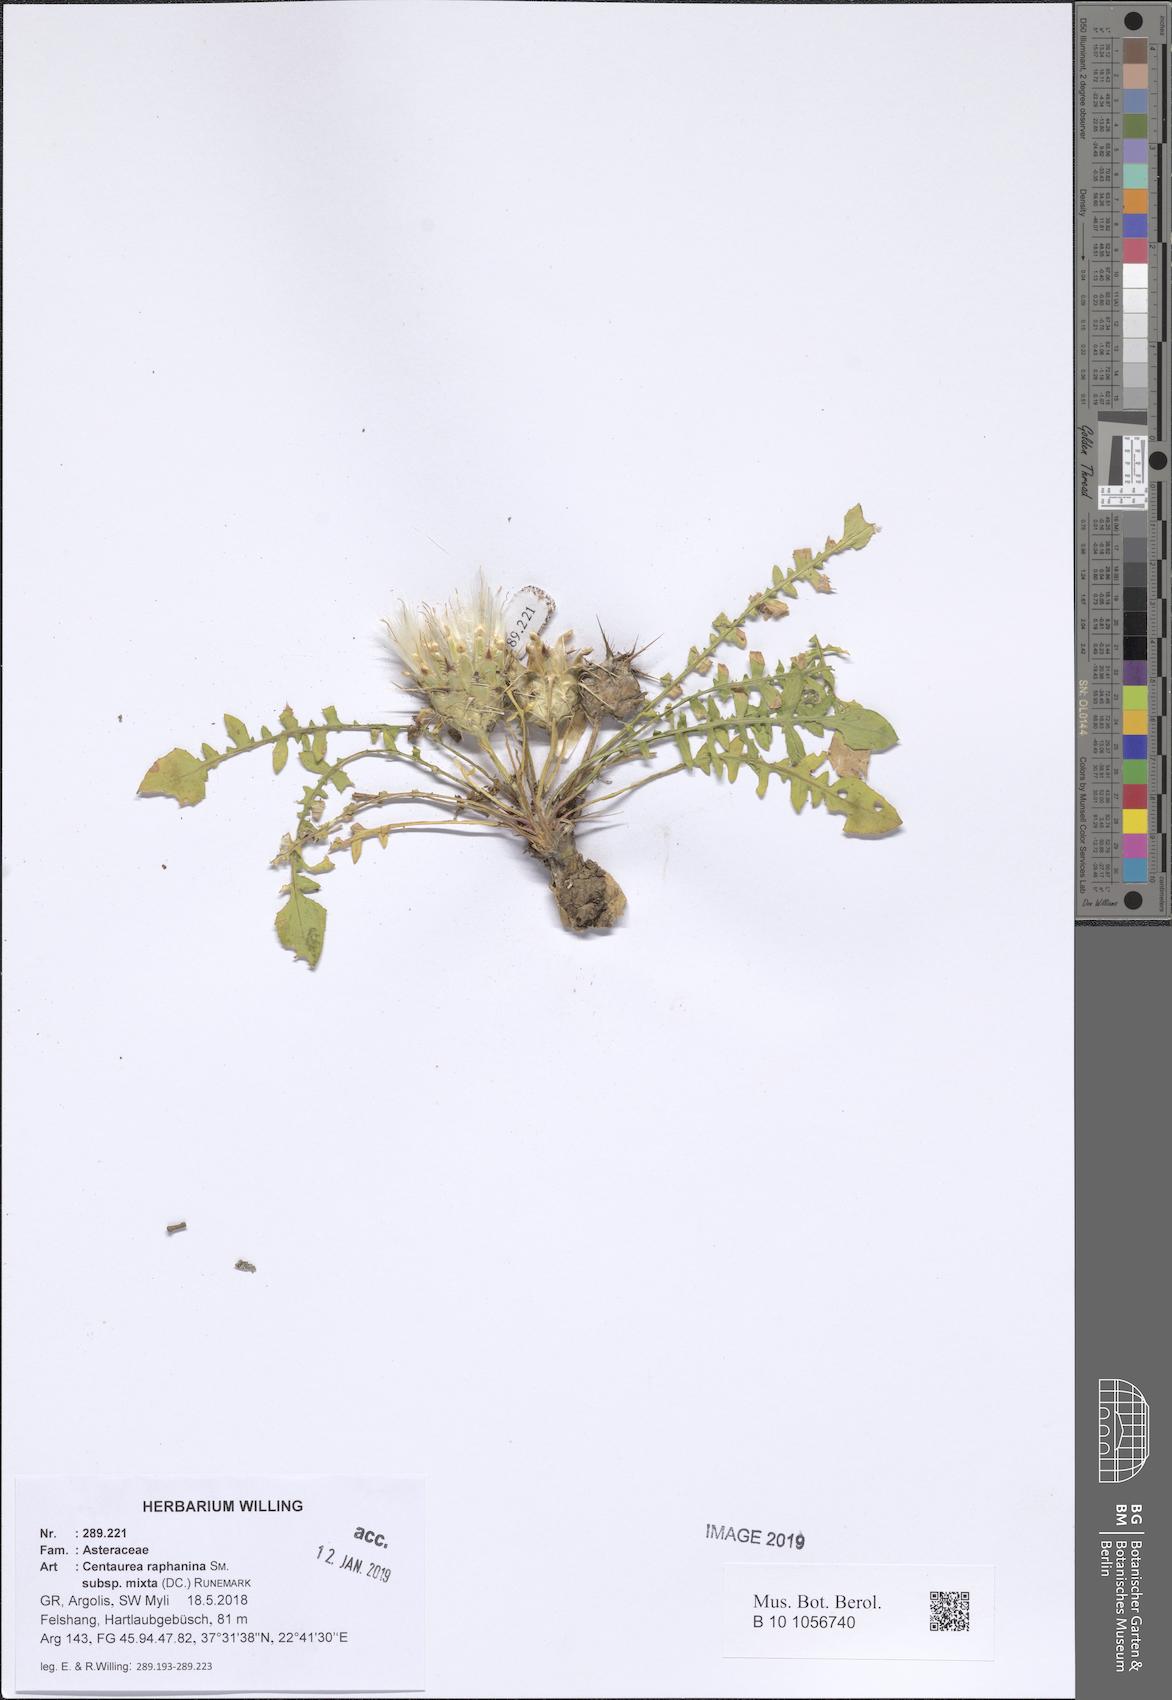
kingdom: Plantae
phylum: Tracheophyta
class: Magnoliopsida
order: Asterales
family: Asteraceae
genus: Centaurea
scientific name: Centaurea raphanina
